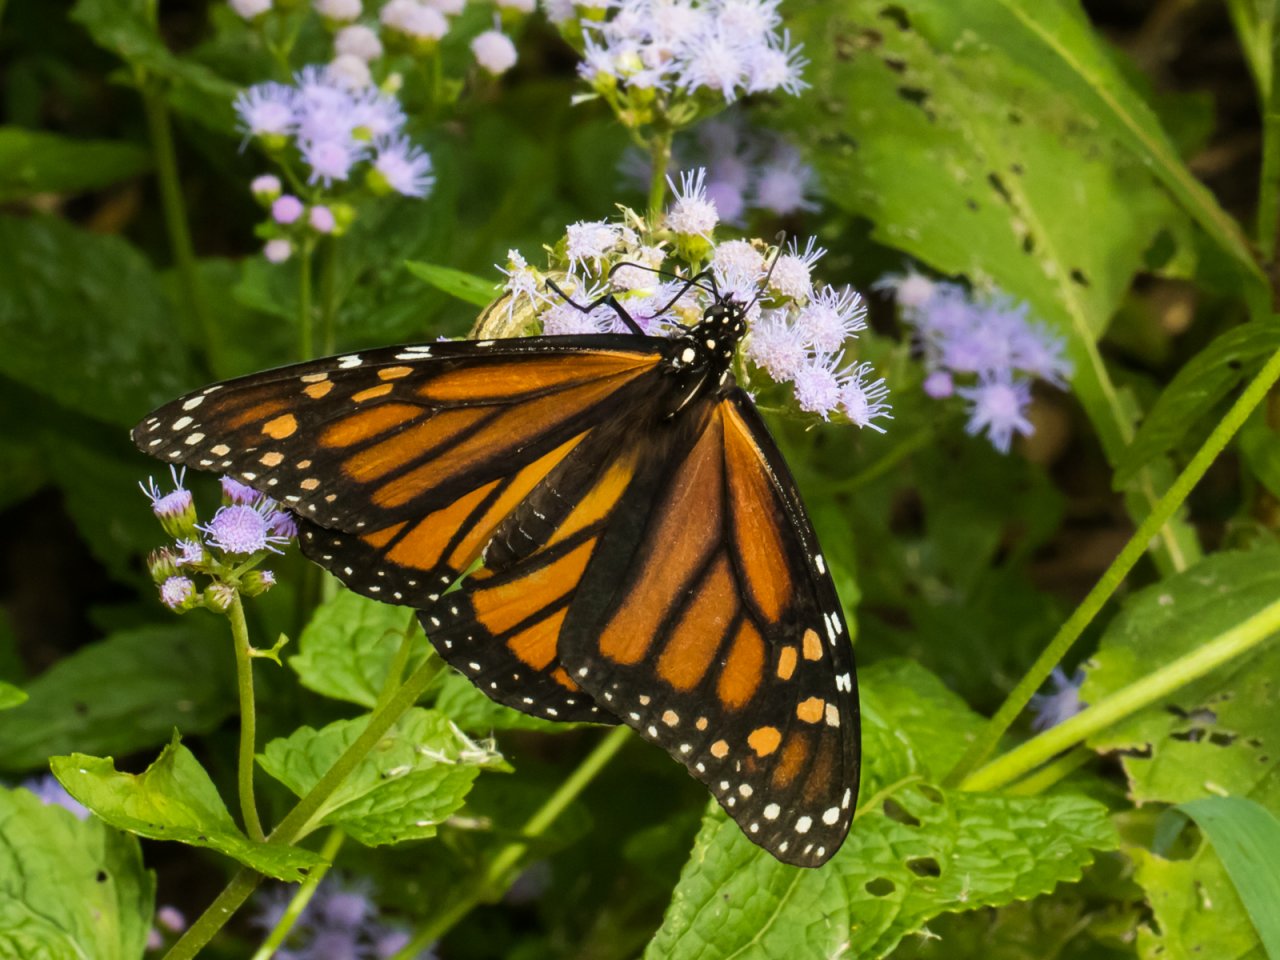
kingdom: Animalia
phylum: Arthropoda
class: Insecta
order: Lepidoptera
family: Nymphalidae
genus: Danaus
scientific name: Danaus plexippus
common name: Monarch
